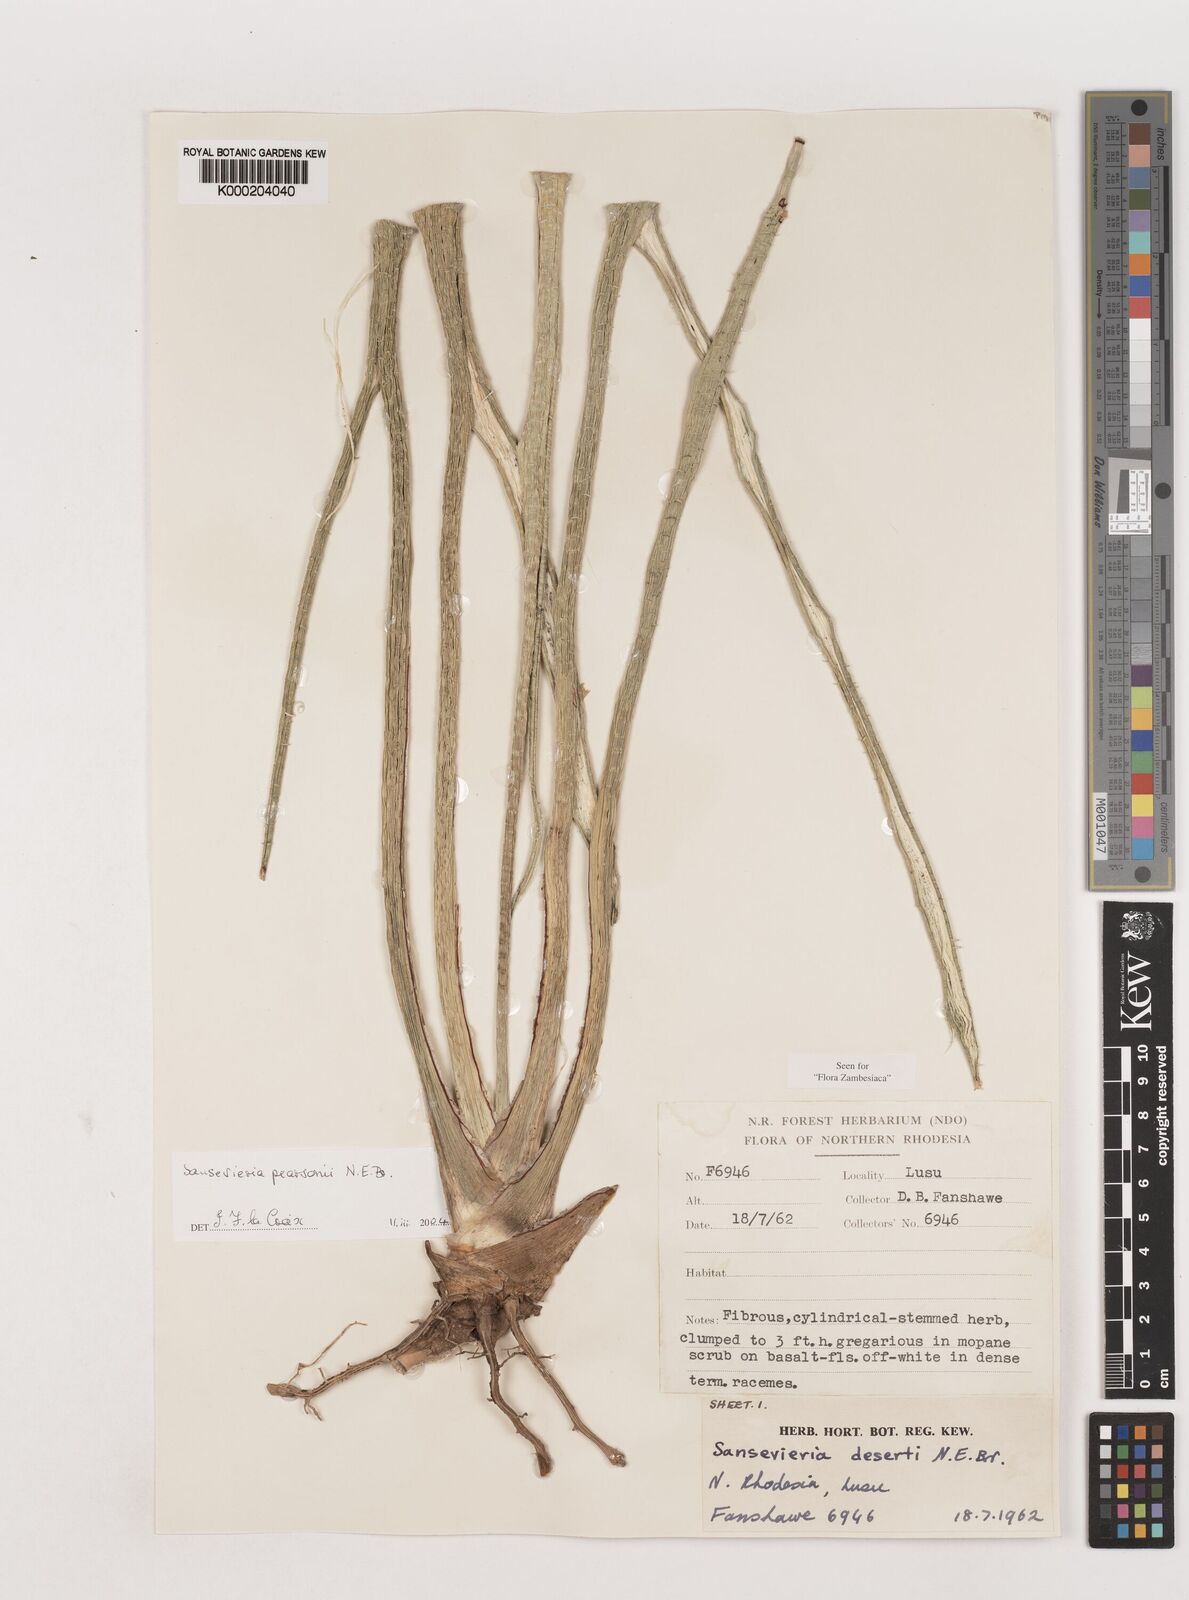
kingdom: Plantae
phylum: Tracheophyta
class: Liliopsida
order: Asparagales
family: Asparagaceae
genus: Dracaena
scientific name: Dracaena pearsonii
